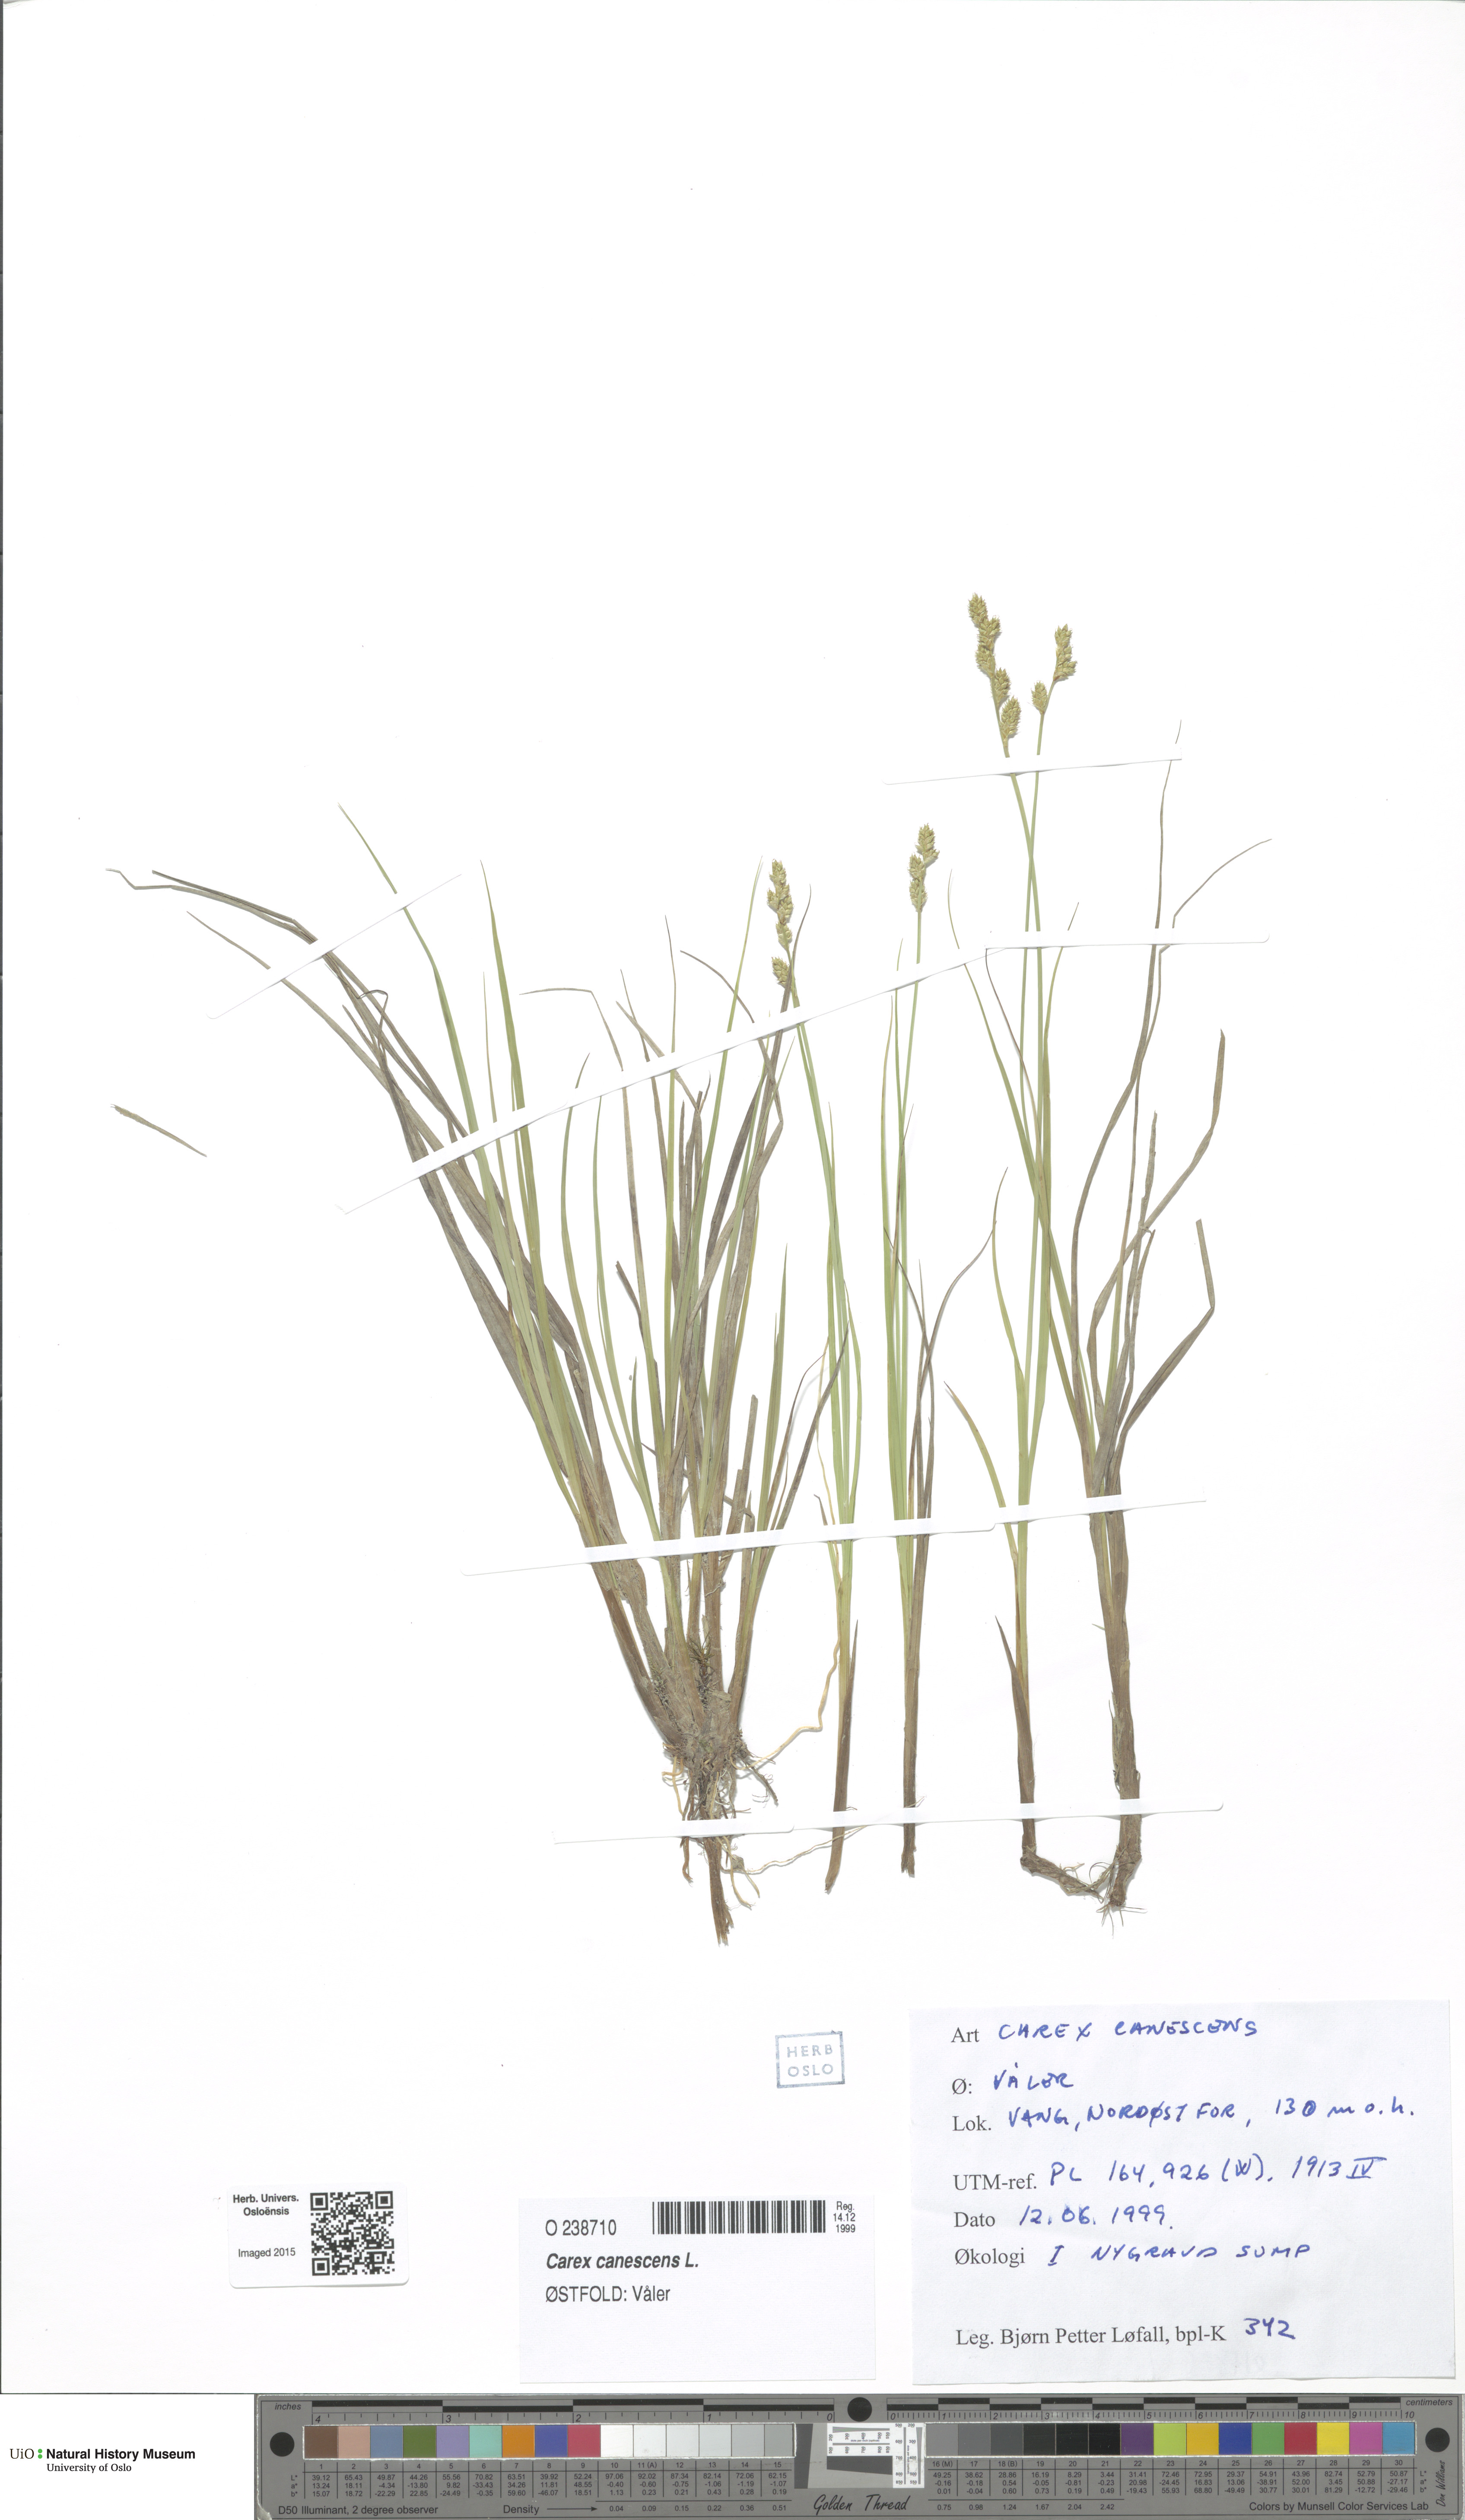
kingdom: Plantae
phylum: Tracheophyta
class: Liliopsida
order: Poales
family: Cyperaceae
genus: Carex
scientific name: Carex canescens
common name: White sedge
